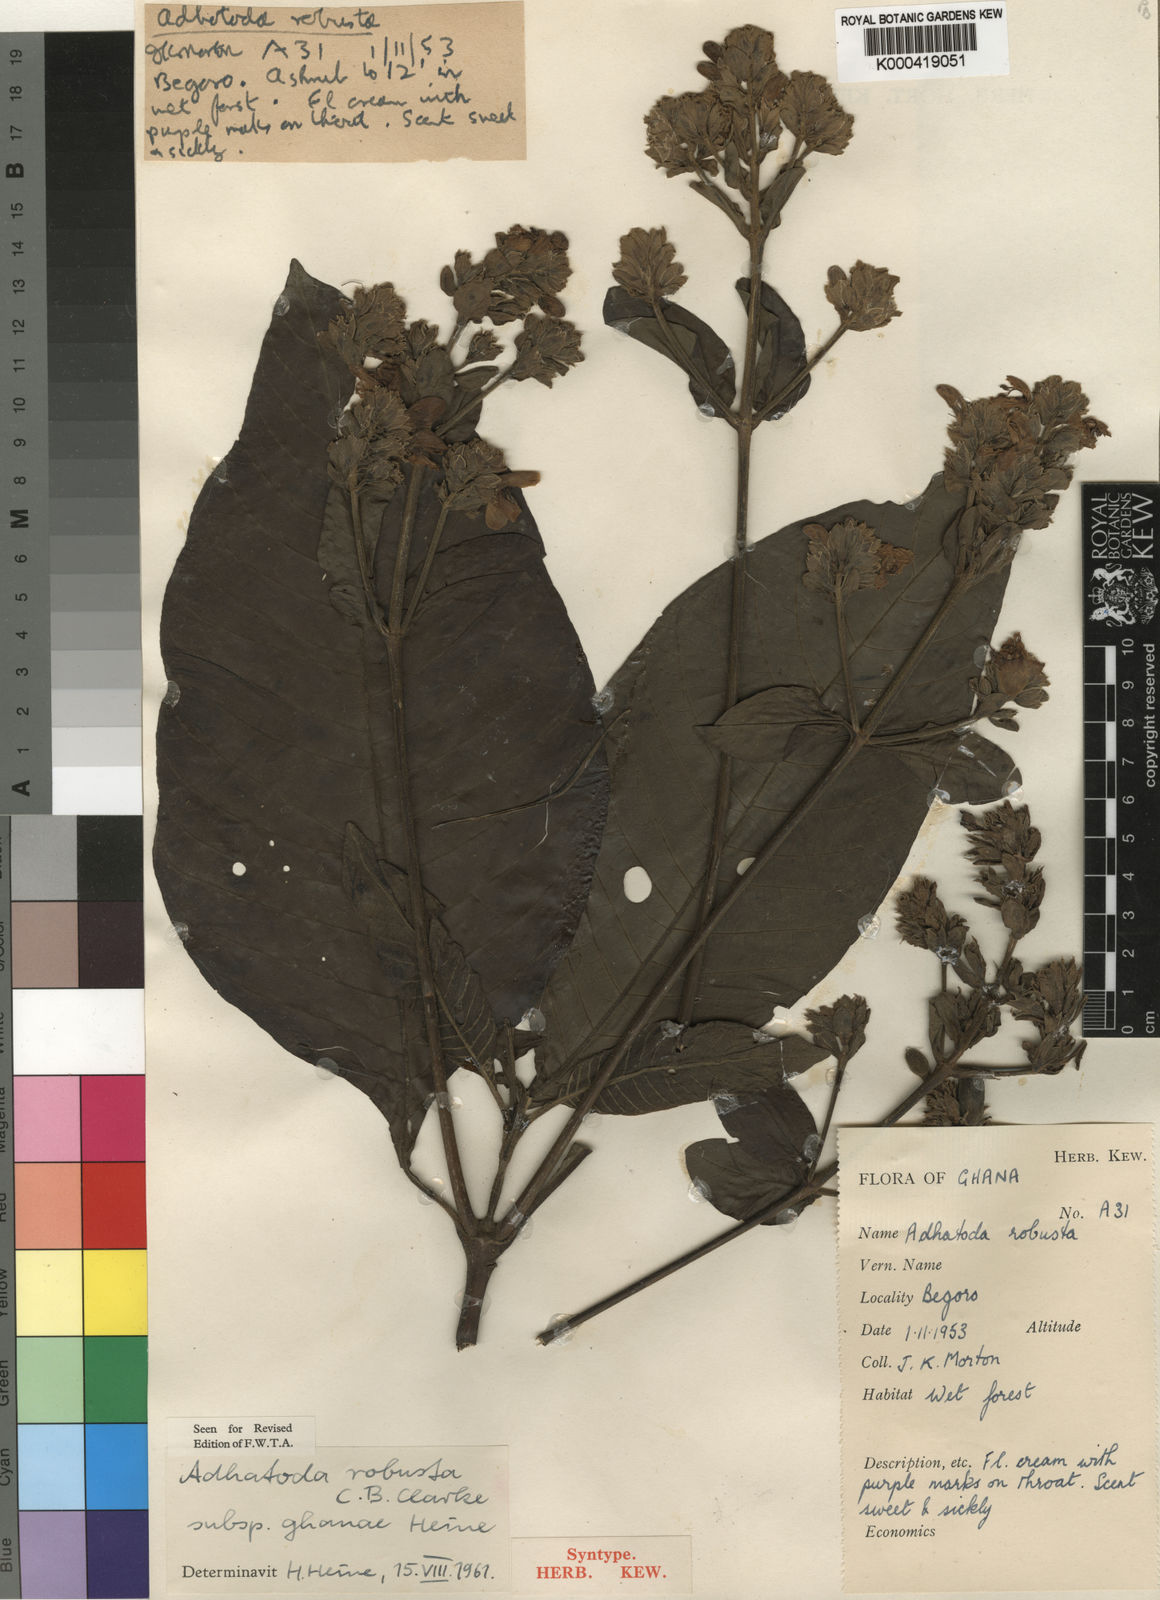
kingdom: Plantae
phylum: Tracheophyta
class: Magnoliopsida
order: Lamiales
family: Acanthaceae
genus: Justicia
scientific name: Justicia maxima
